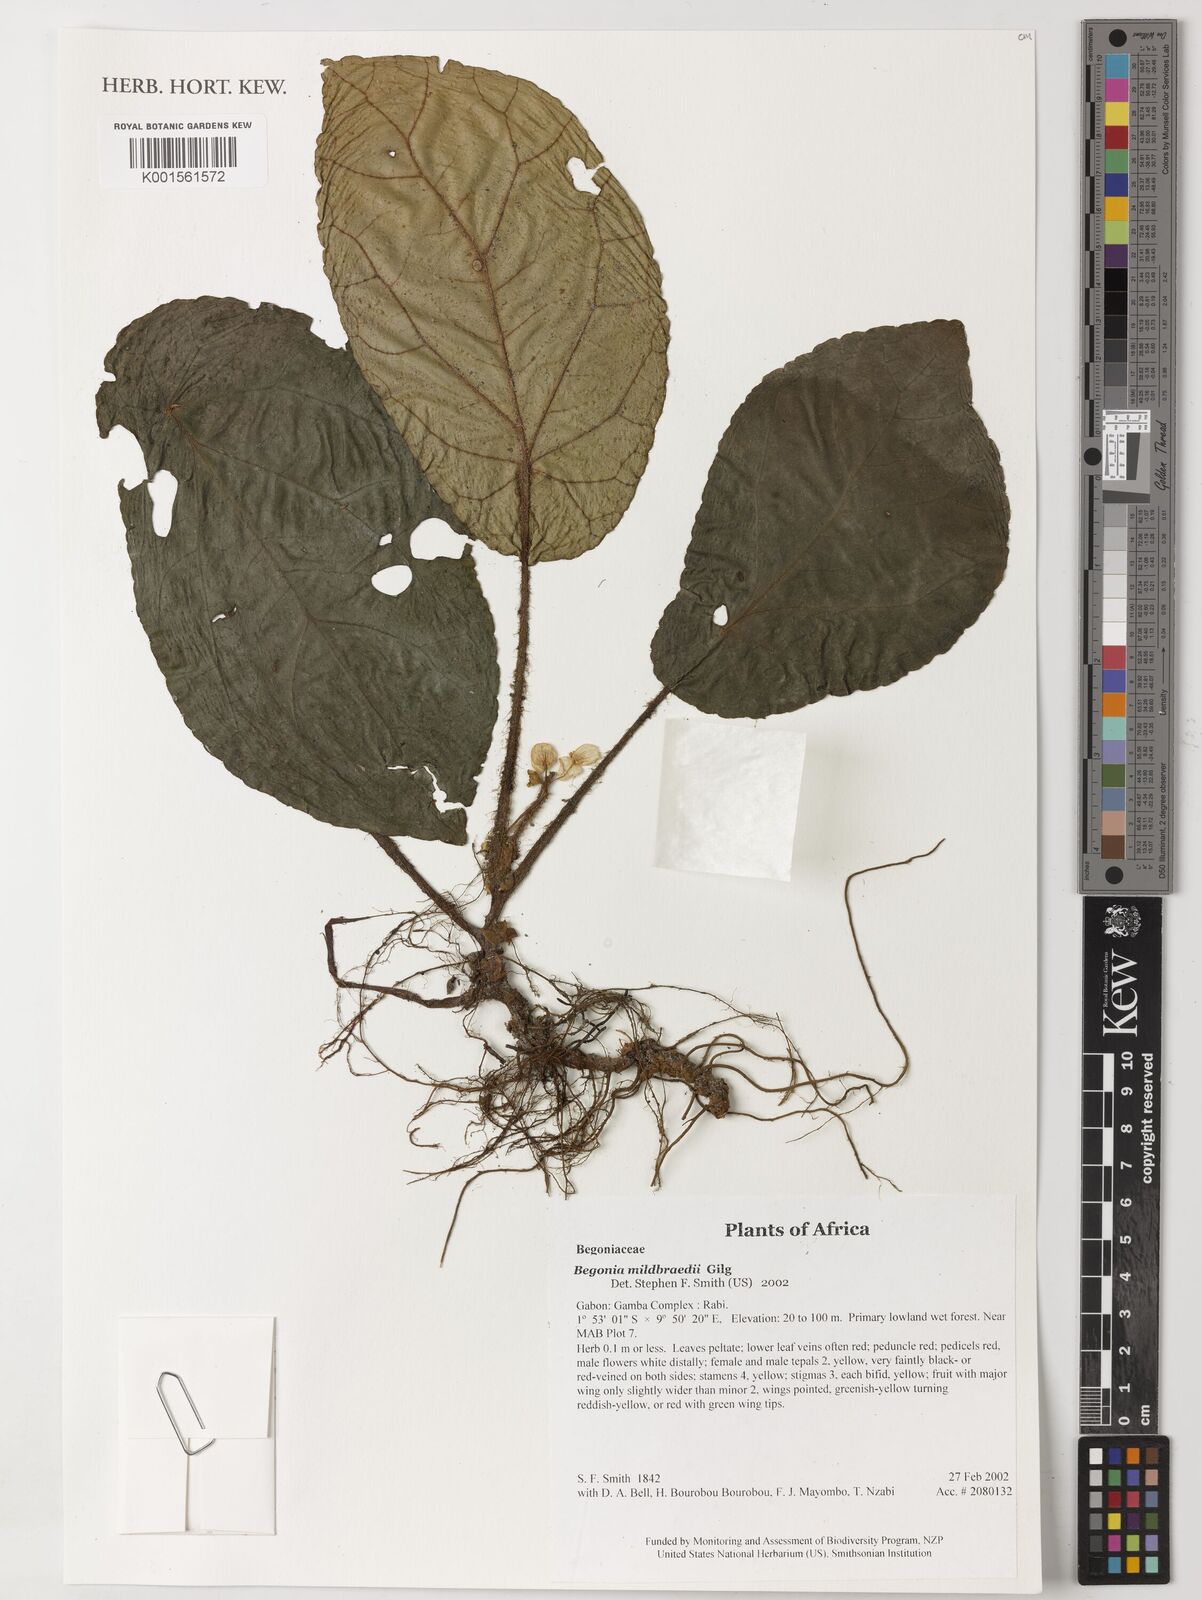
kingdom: Plantae
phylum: Tracheophyta
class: Magnoliopsida
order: Cucurbitales
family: Begoniaceae
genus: Begonia
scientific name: Begonia mildbraedii
